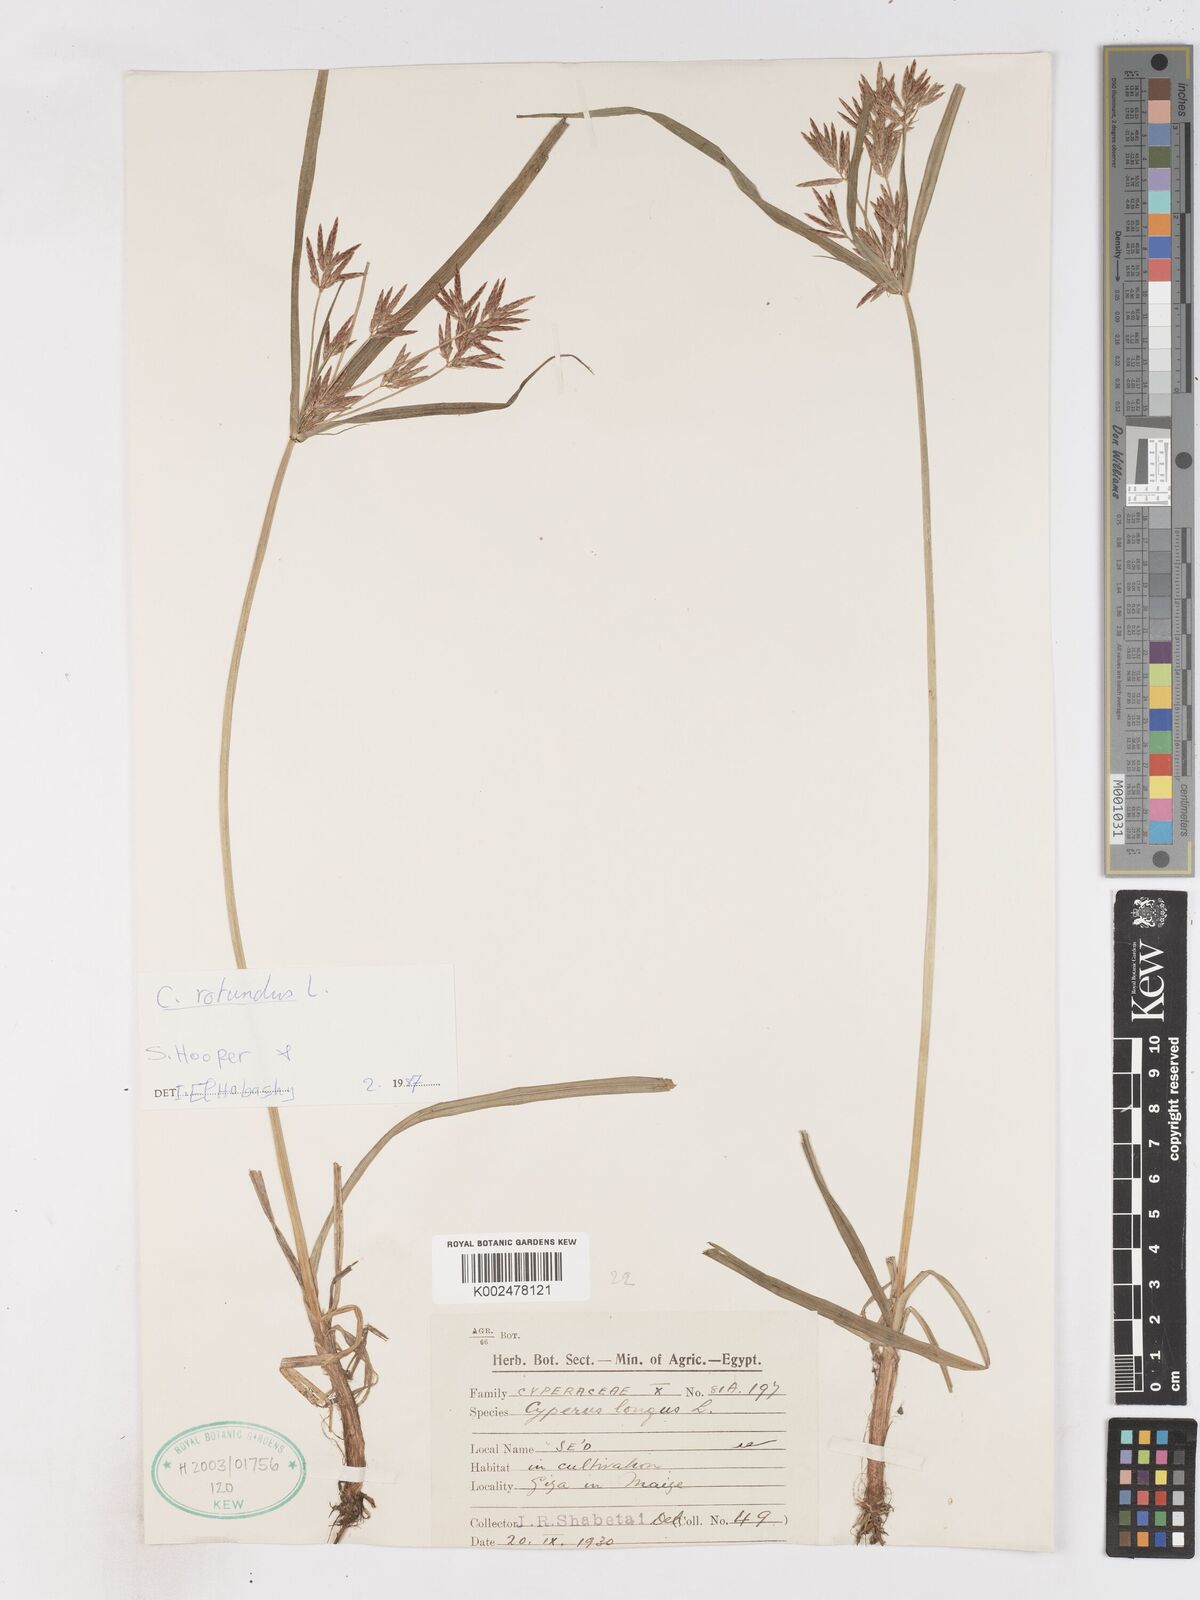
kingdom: Plantae
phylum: Tracheophyta
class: Liliopsida
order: Poales
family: Cyperaceae
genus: Cyperus
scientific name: Cyperus rotundus
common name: Nutgrass
